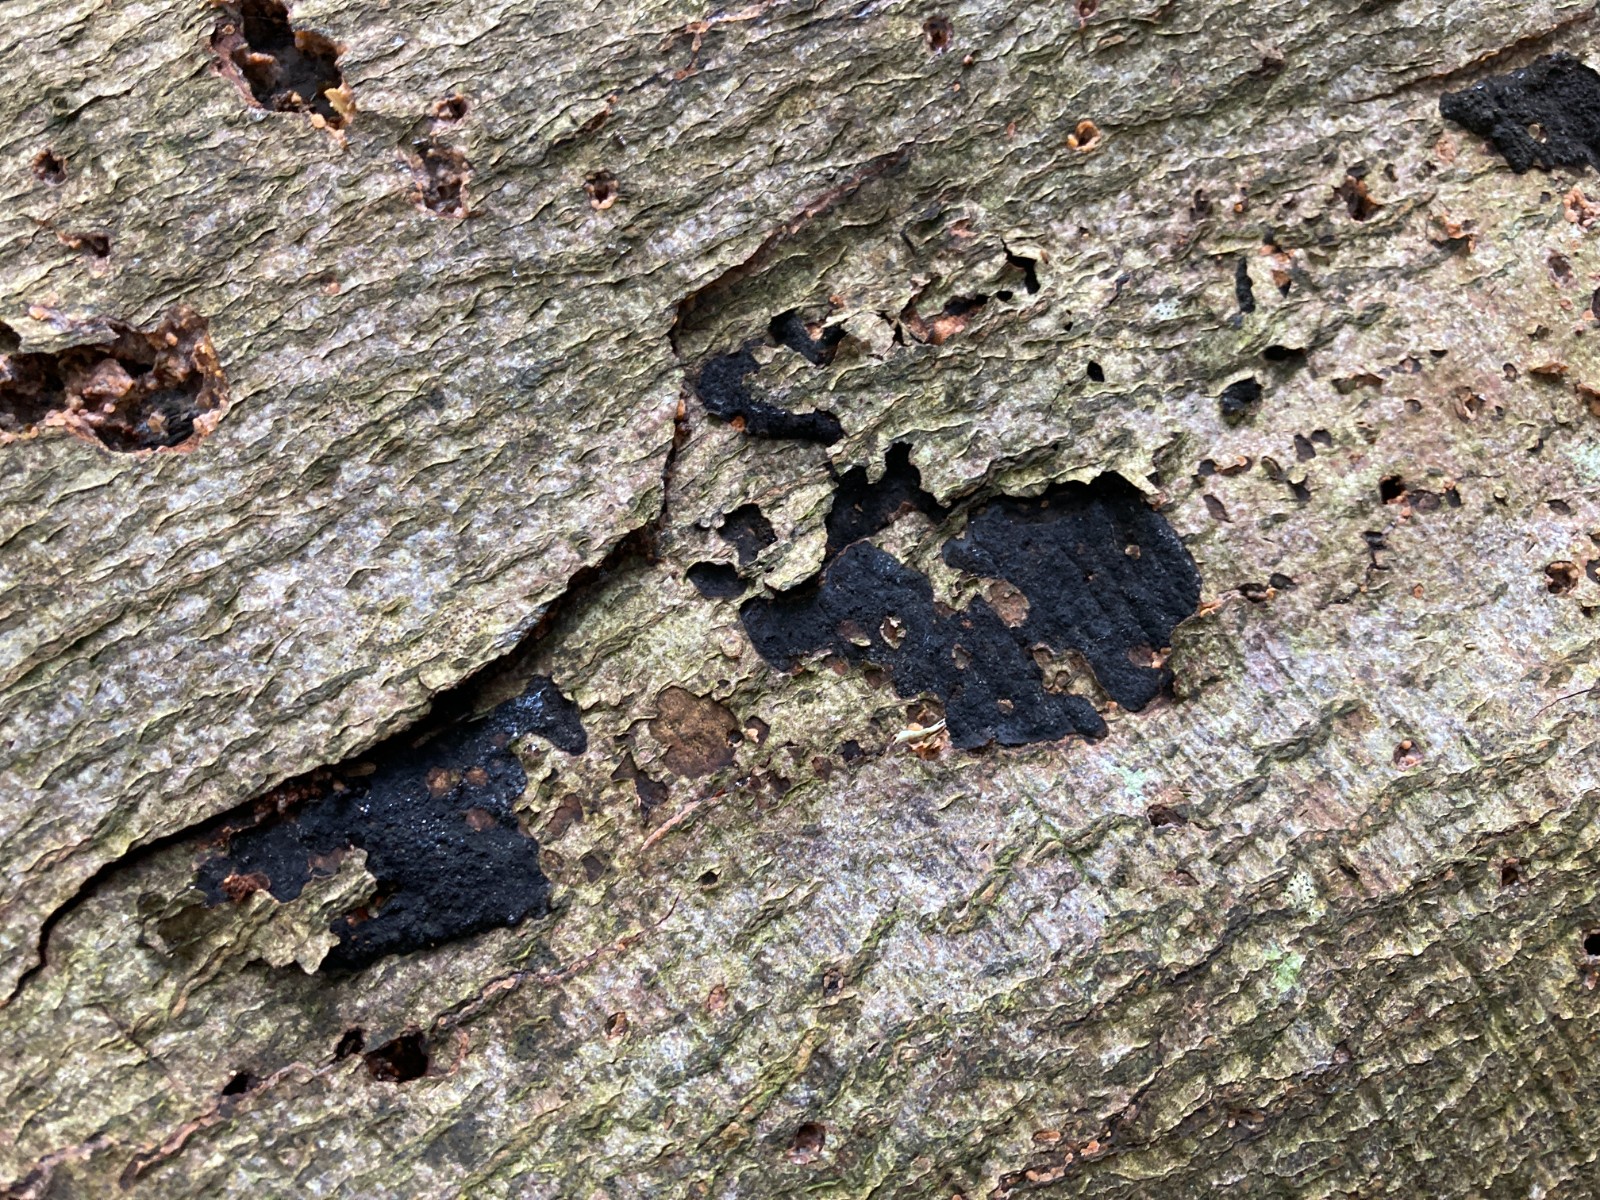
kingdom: Fungi
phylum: Ascomycota
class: Sordariomycetes
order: Xylariales
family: Diatrypaceae
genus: Eutypa
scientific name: Eutypa spinosa
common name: grov kulskorpe
